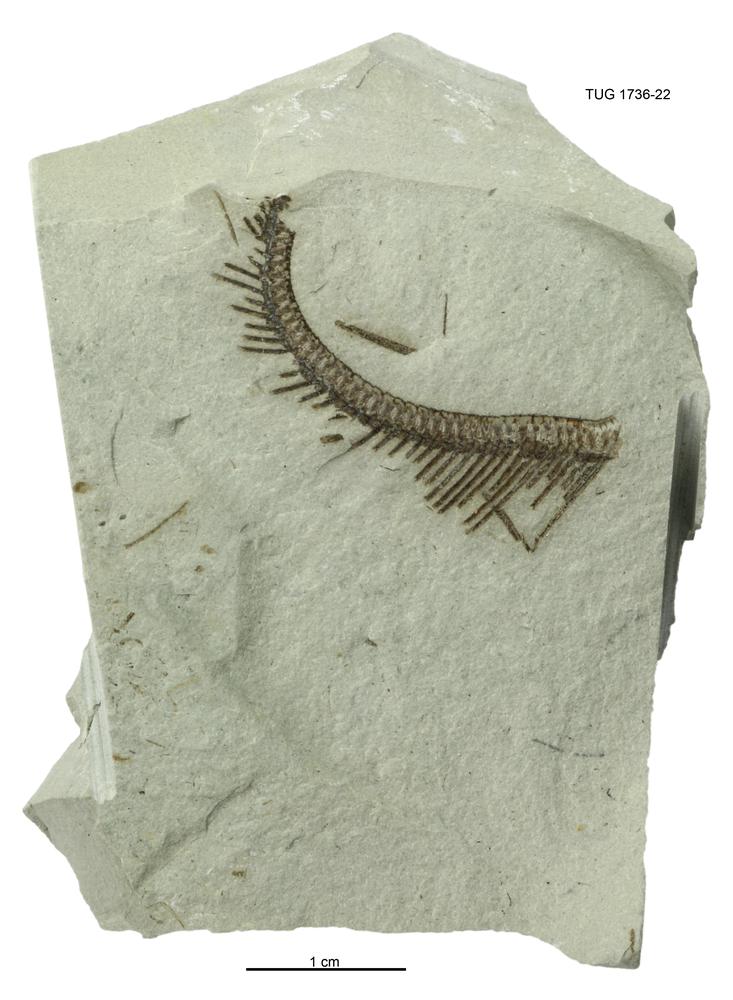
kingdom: Animalia
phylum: Echinodermata
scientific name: Echinodermata
